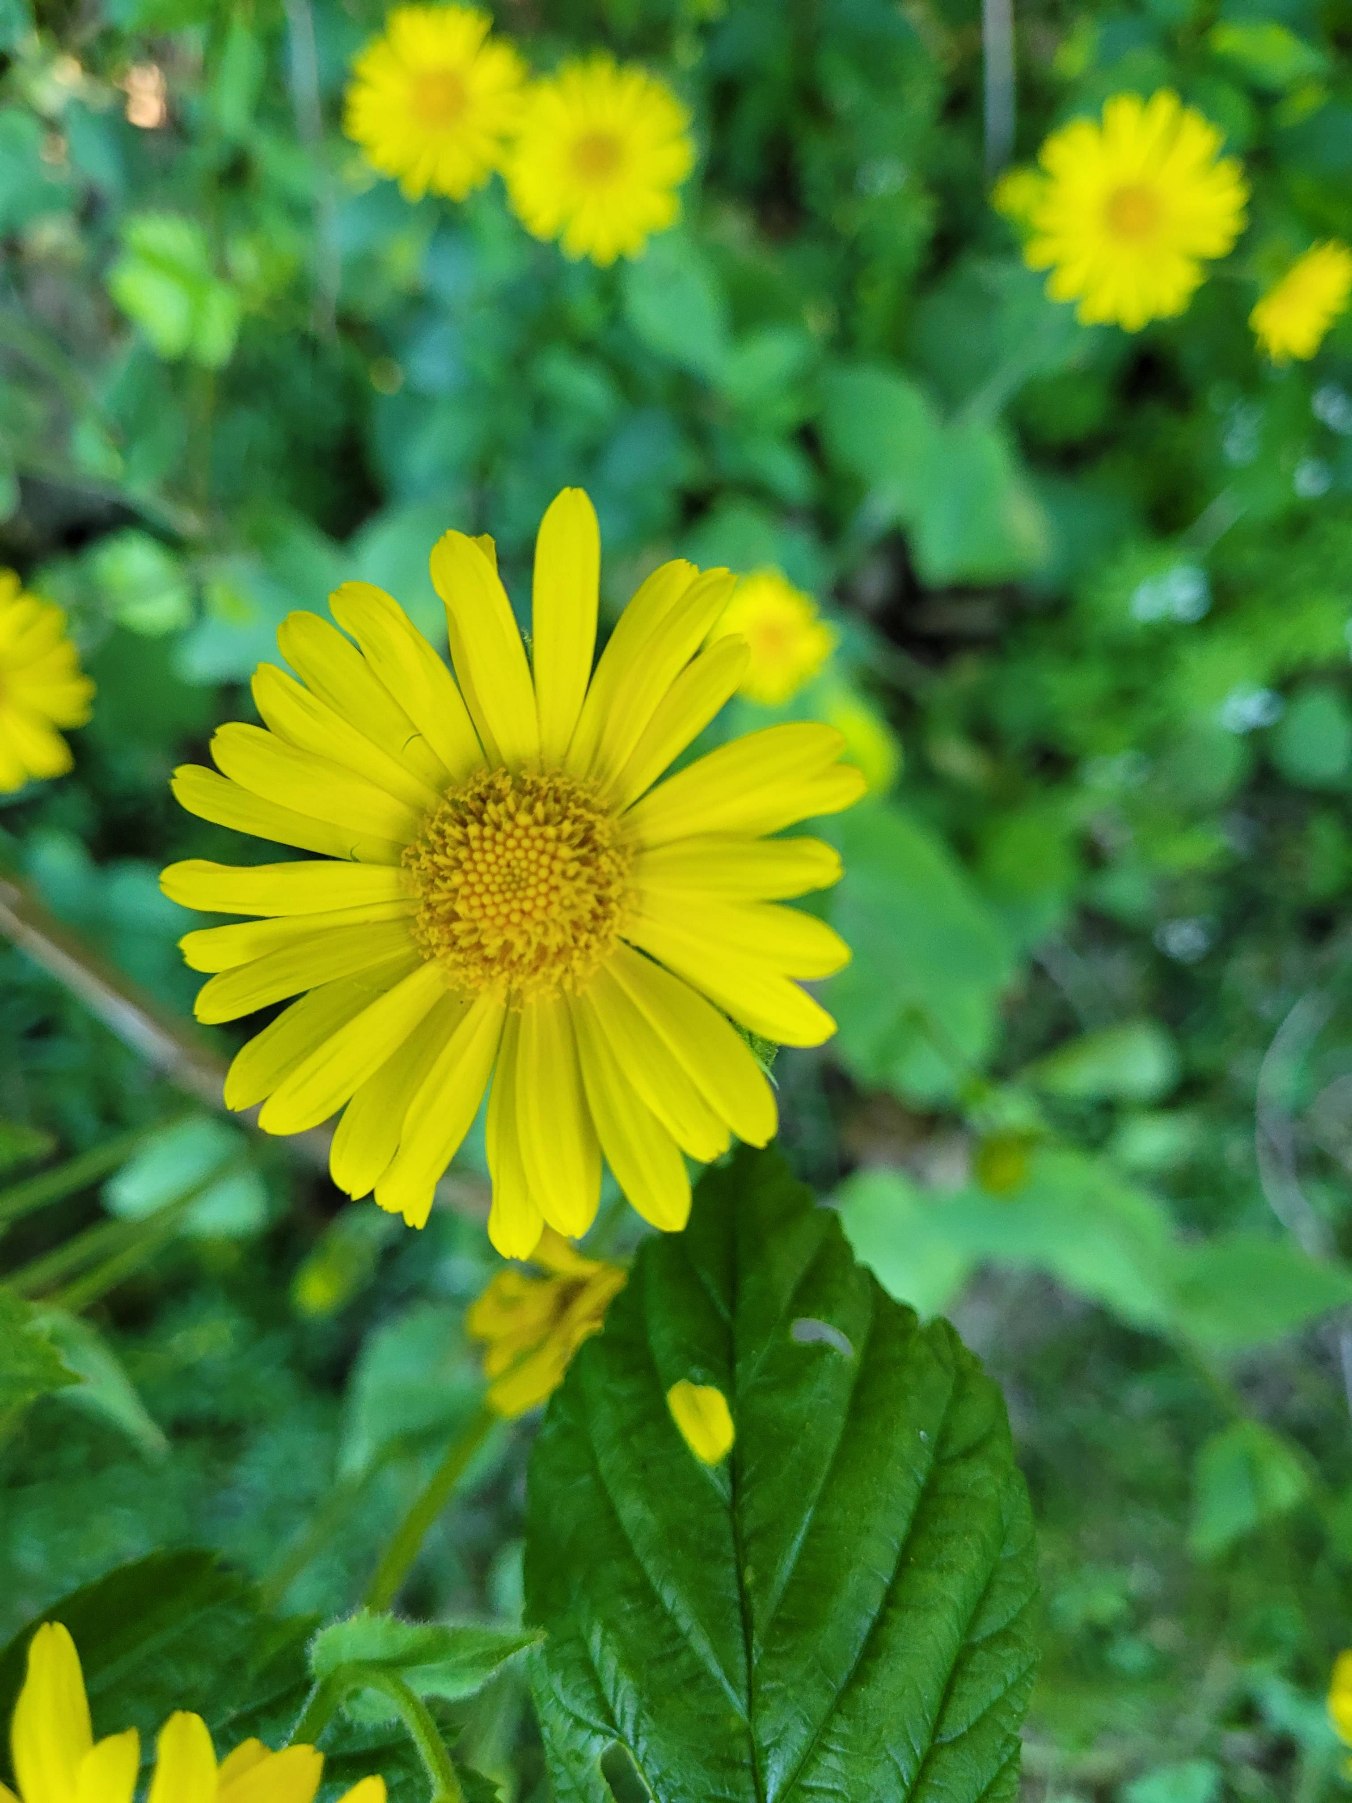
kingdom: Plantae
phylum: Tracheophyta
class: Magnoliopsida
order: Asterales
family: Asteraceae
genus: Doronicum
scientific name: Doronicum pardalianches
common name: Hjertebladet gemserod
